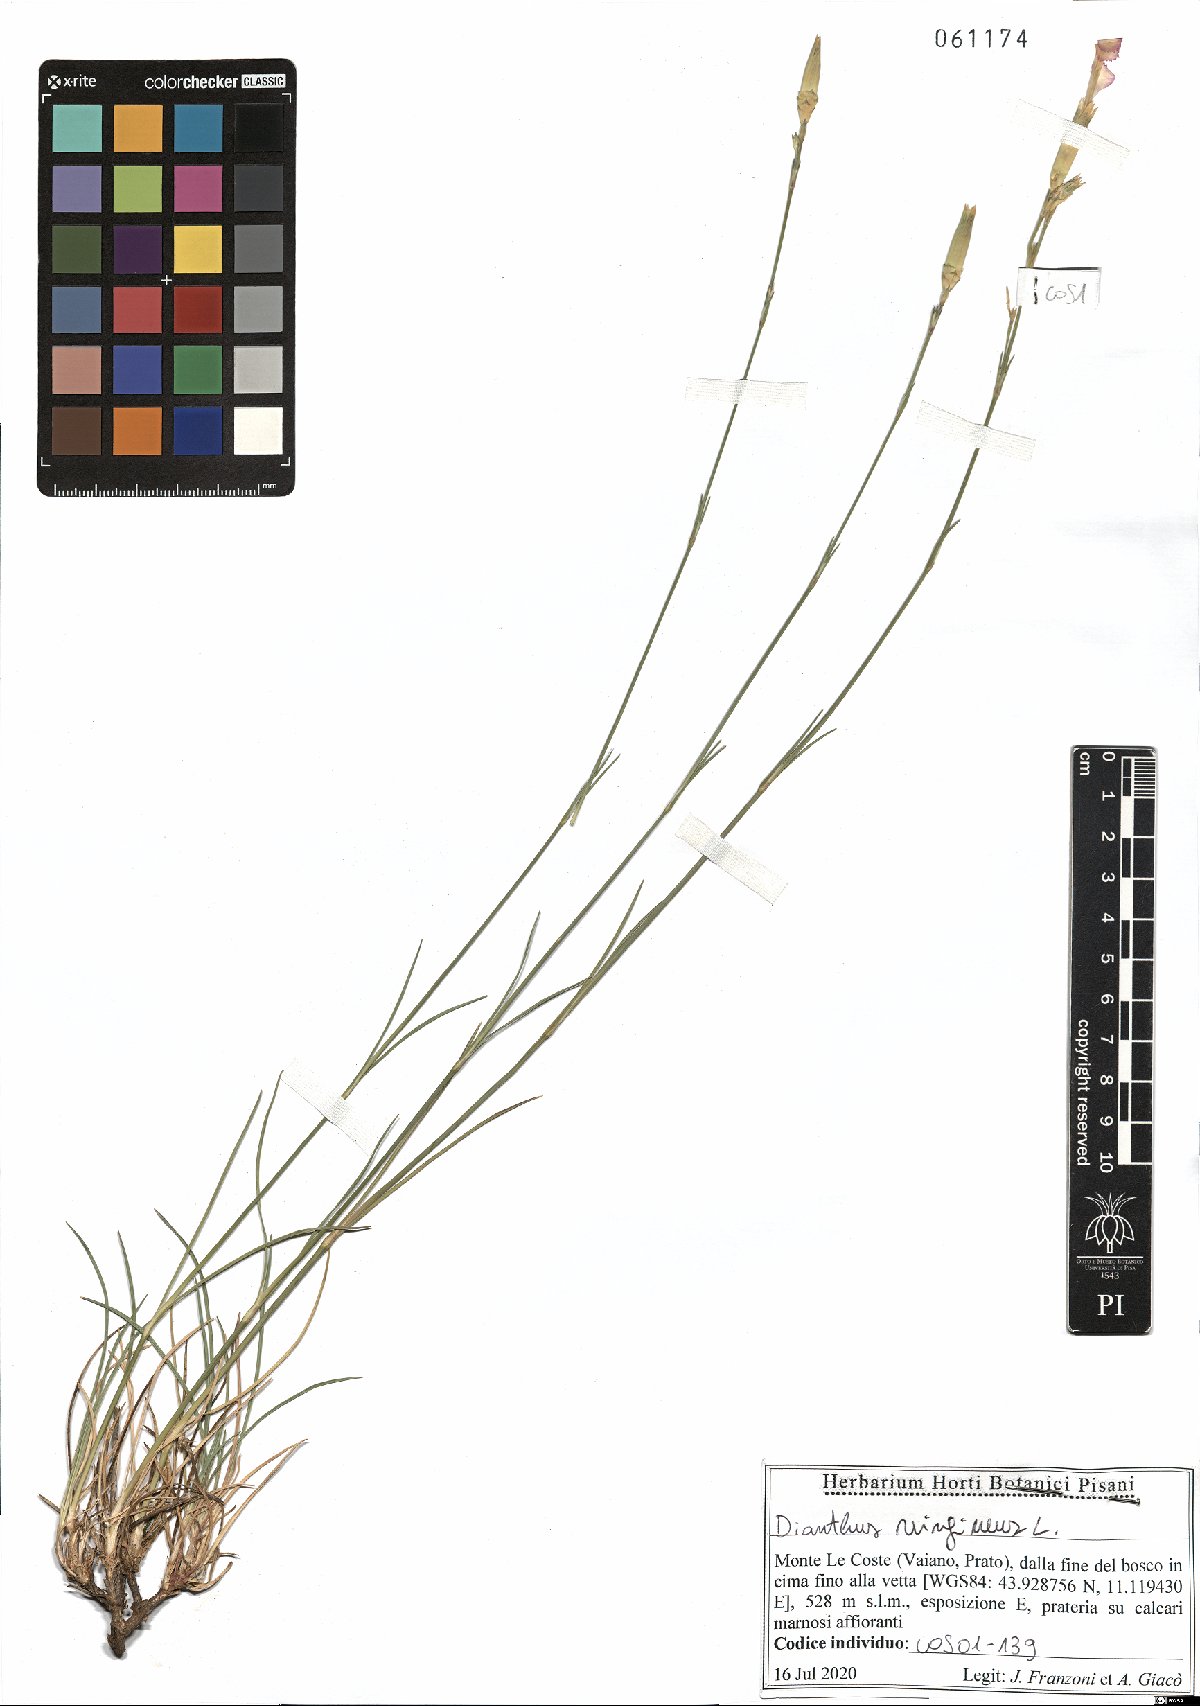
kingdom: Plantae
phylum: Tracheophyta
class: Magnoliopsida
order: Caryophyllales
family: Caryophyllaceae
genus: Dianthus
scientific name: Dianthus virgineus
